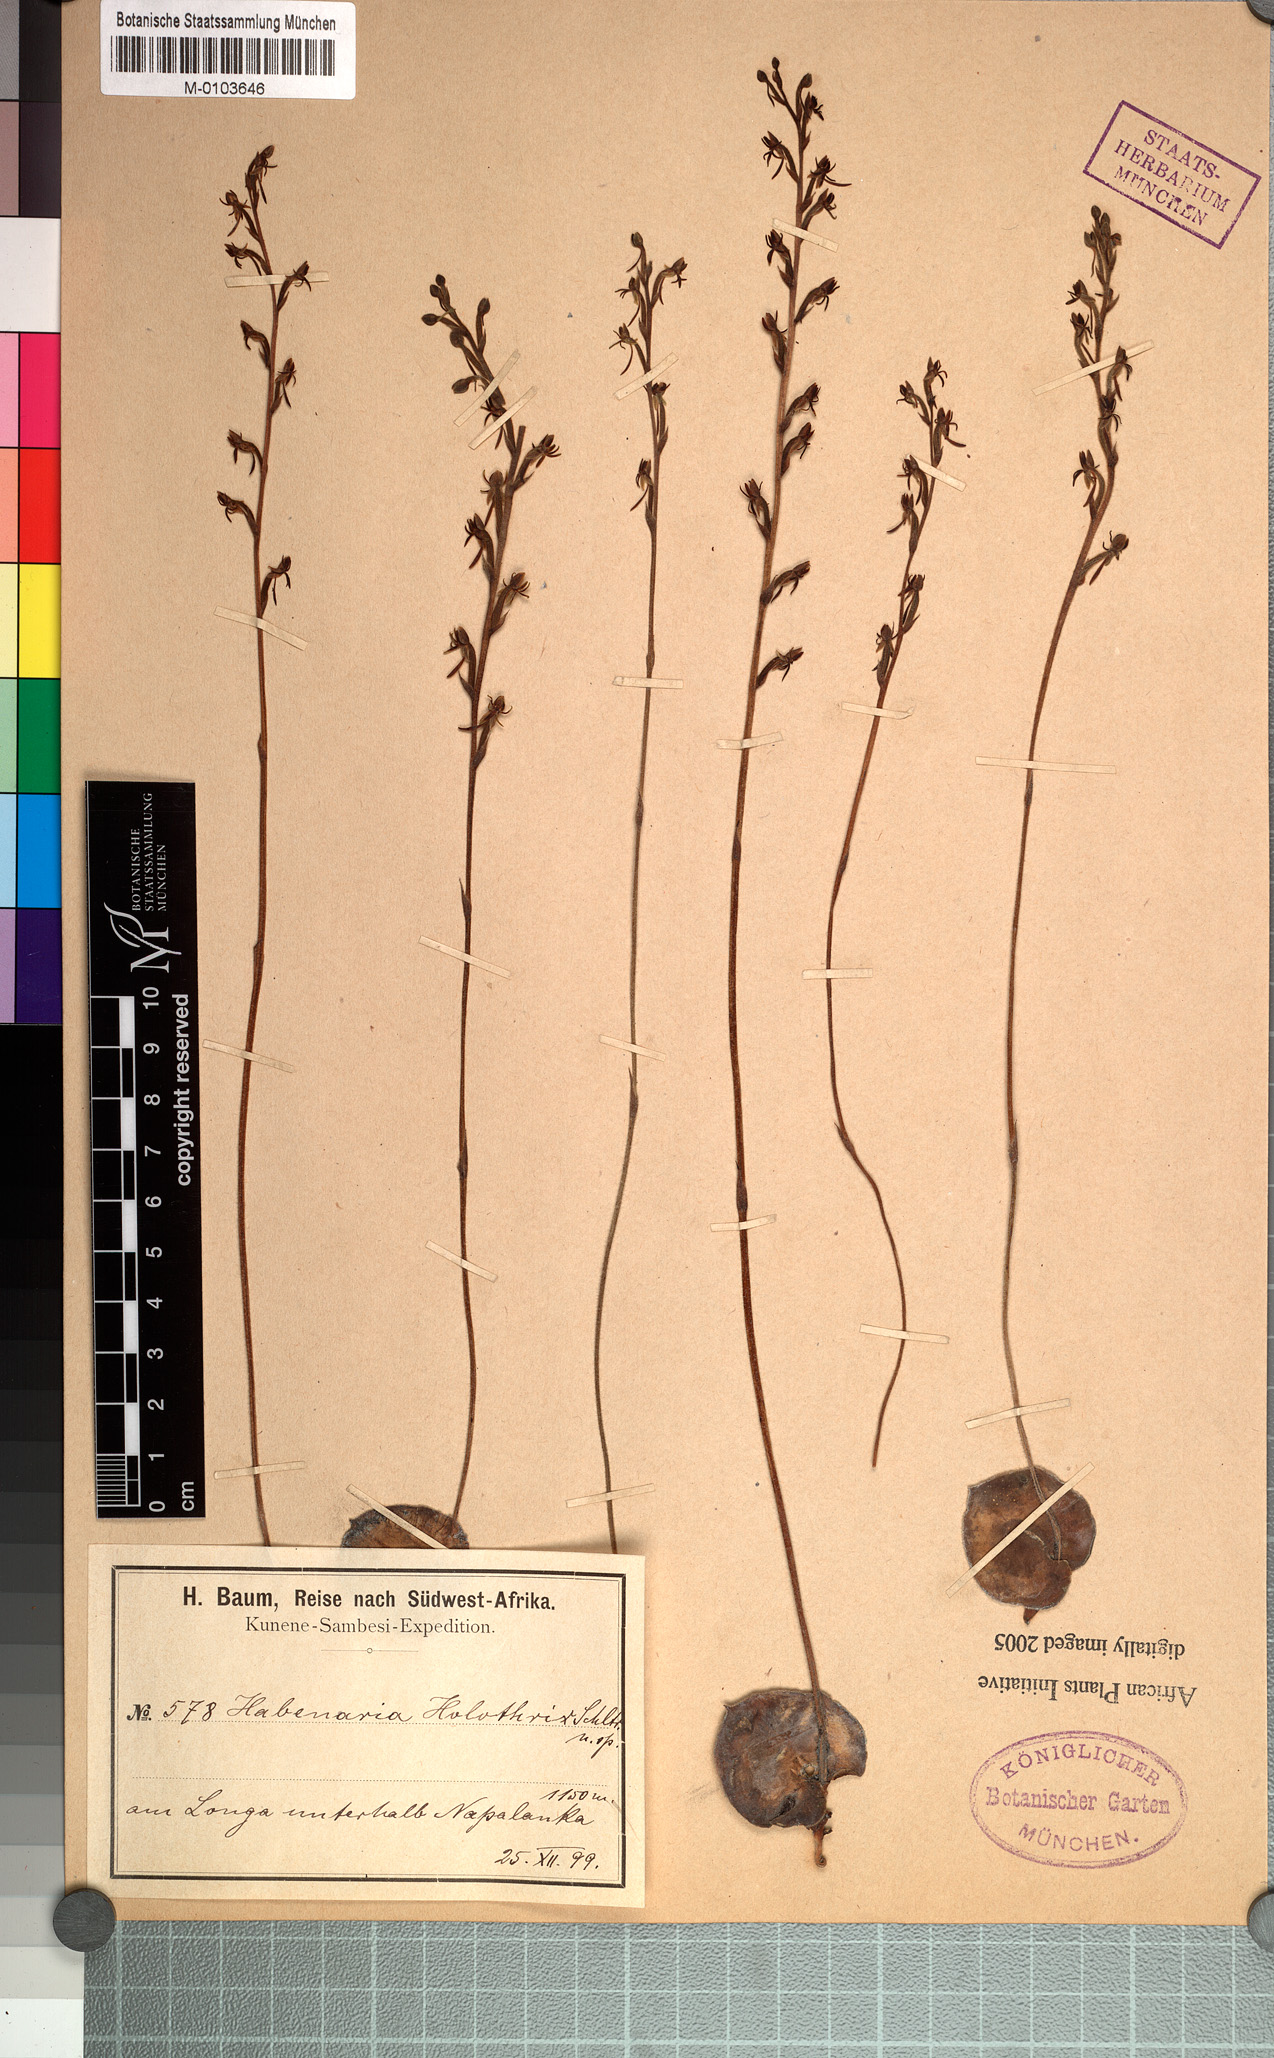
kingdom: Plantae
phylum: Tracheophyta
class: Liliopsida
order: Asparagales
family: Orchidaceae
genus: Habenaria
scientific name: Habenaria holothrix
